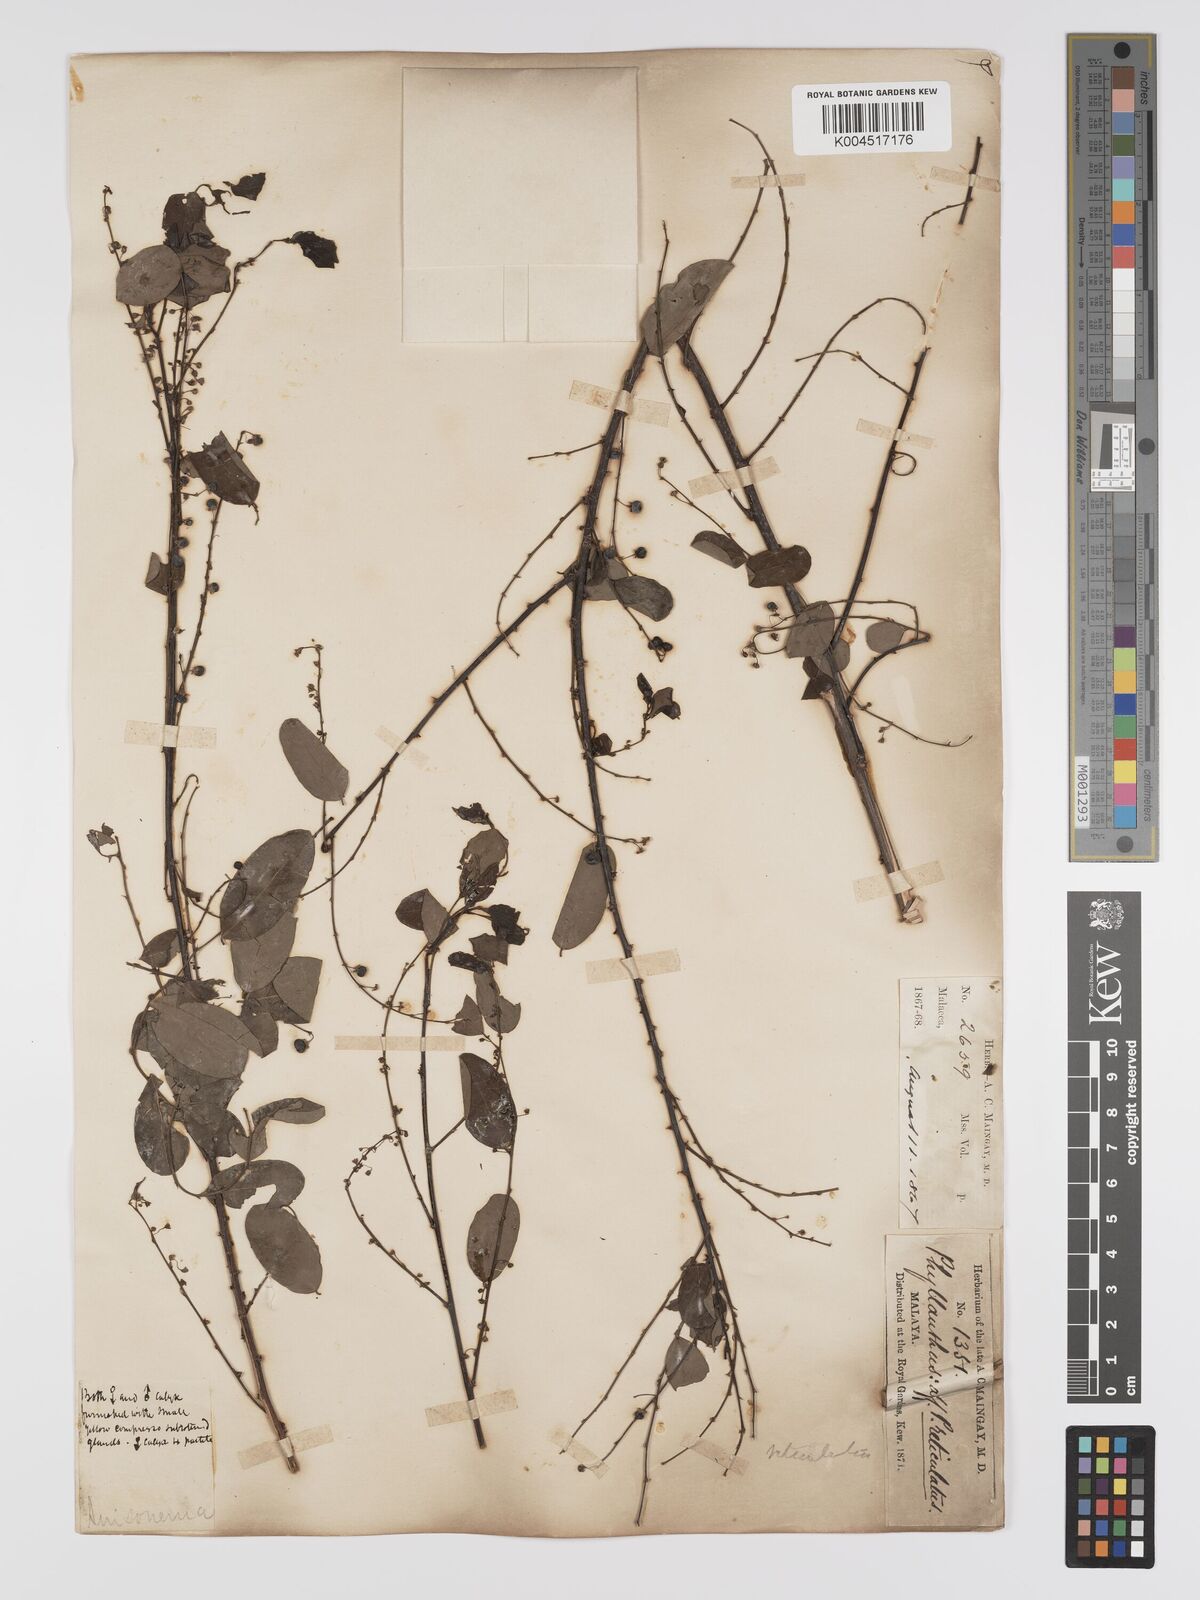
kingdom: Plantae
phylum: Tracheophyta
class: Magnoliopsida
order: Malpighiales
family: Phyllanthaceae
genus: Phyllanthus
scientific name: Phyllanthus microcarpus
